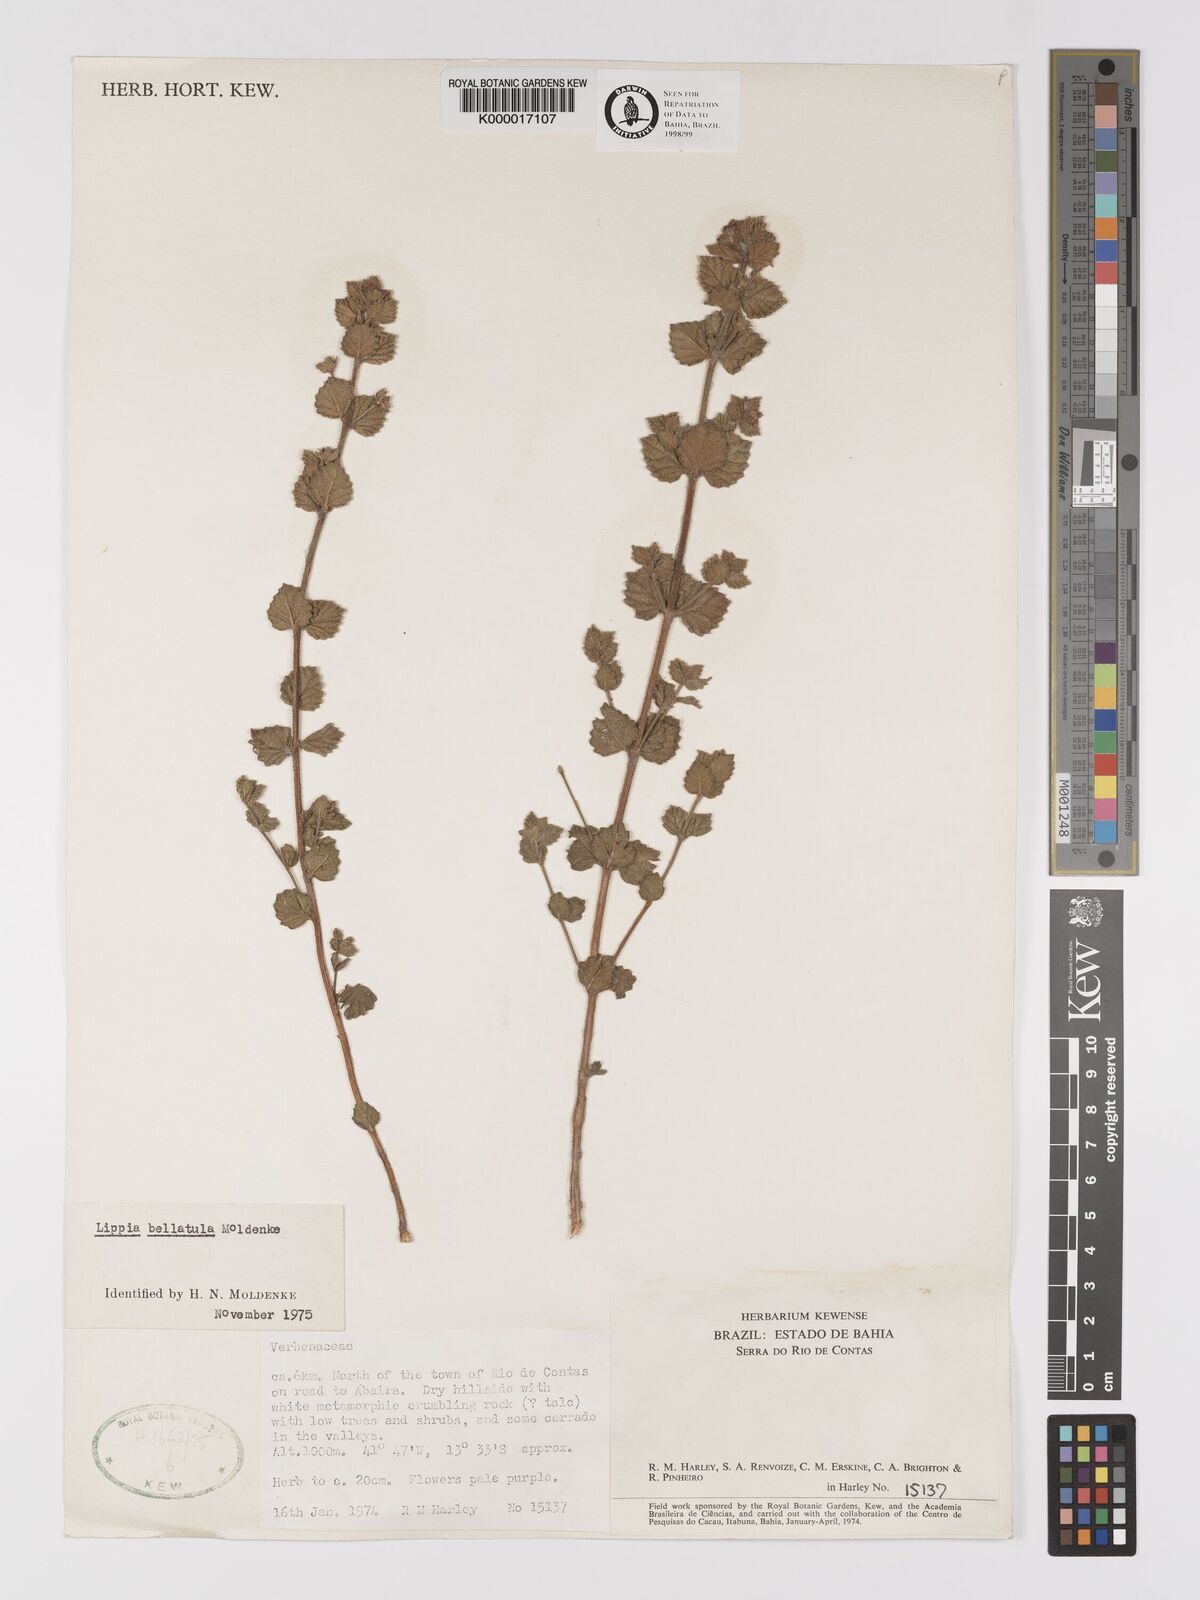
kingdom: Plantae
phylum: Tracheophyta
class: Magnoliopsida
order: Lamiales
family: Verbenaceae
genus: Lippia
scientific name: Lippia bellatula
